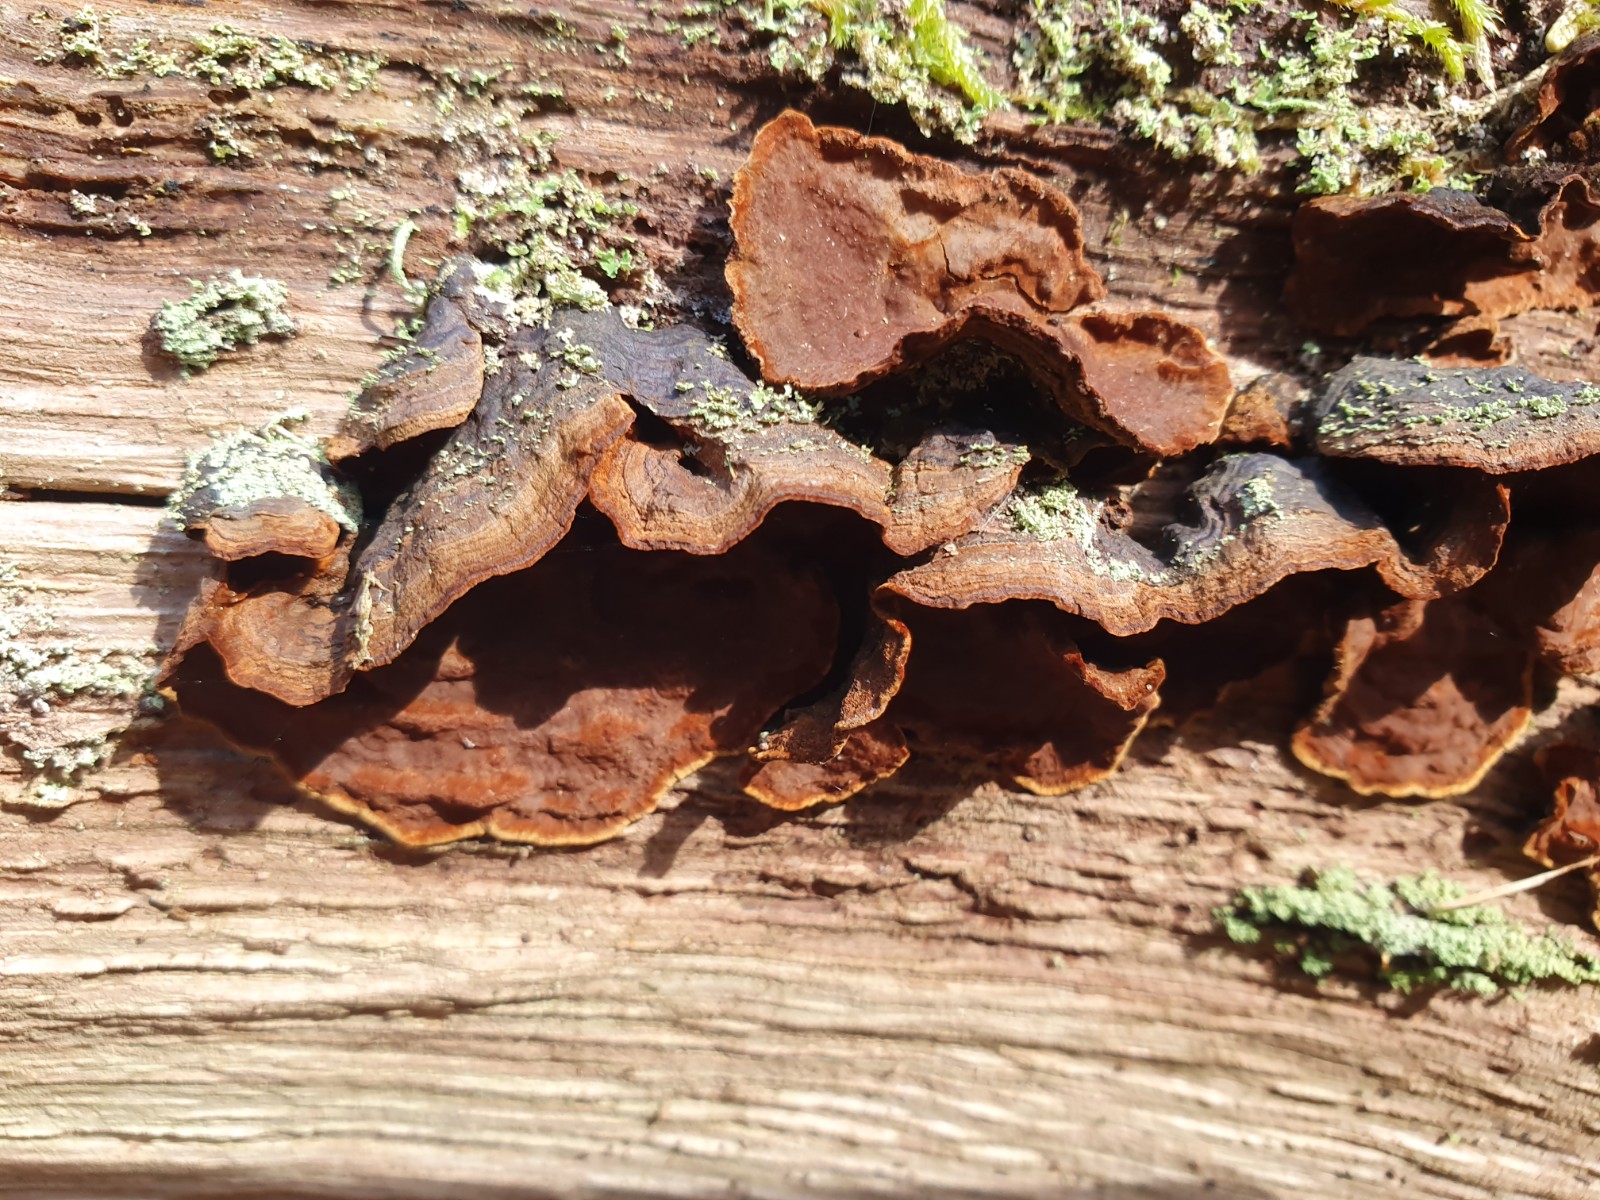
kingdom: Fungi
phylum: Basidiomycota
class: Agaricomycetes
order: Hymenochaetales
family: Hymenochaetaceae
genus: Hymenochaete
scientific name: Hymenochaete rubiginosa
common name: stiv ruslædersvamp
